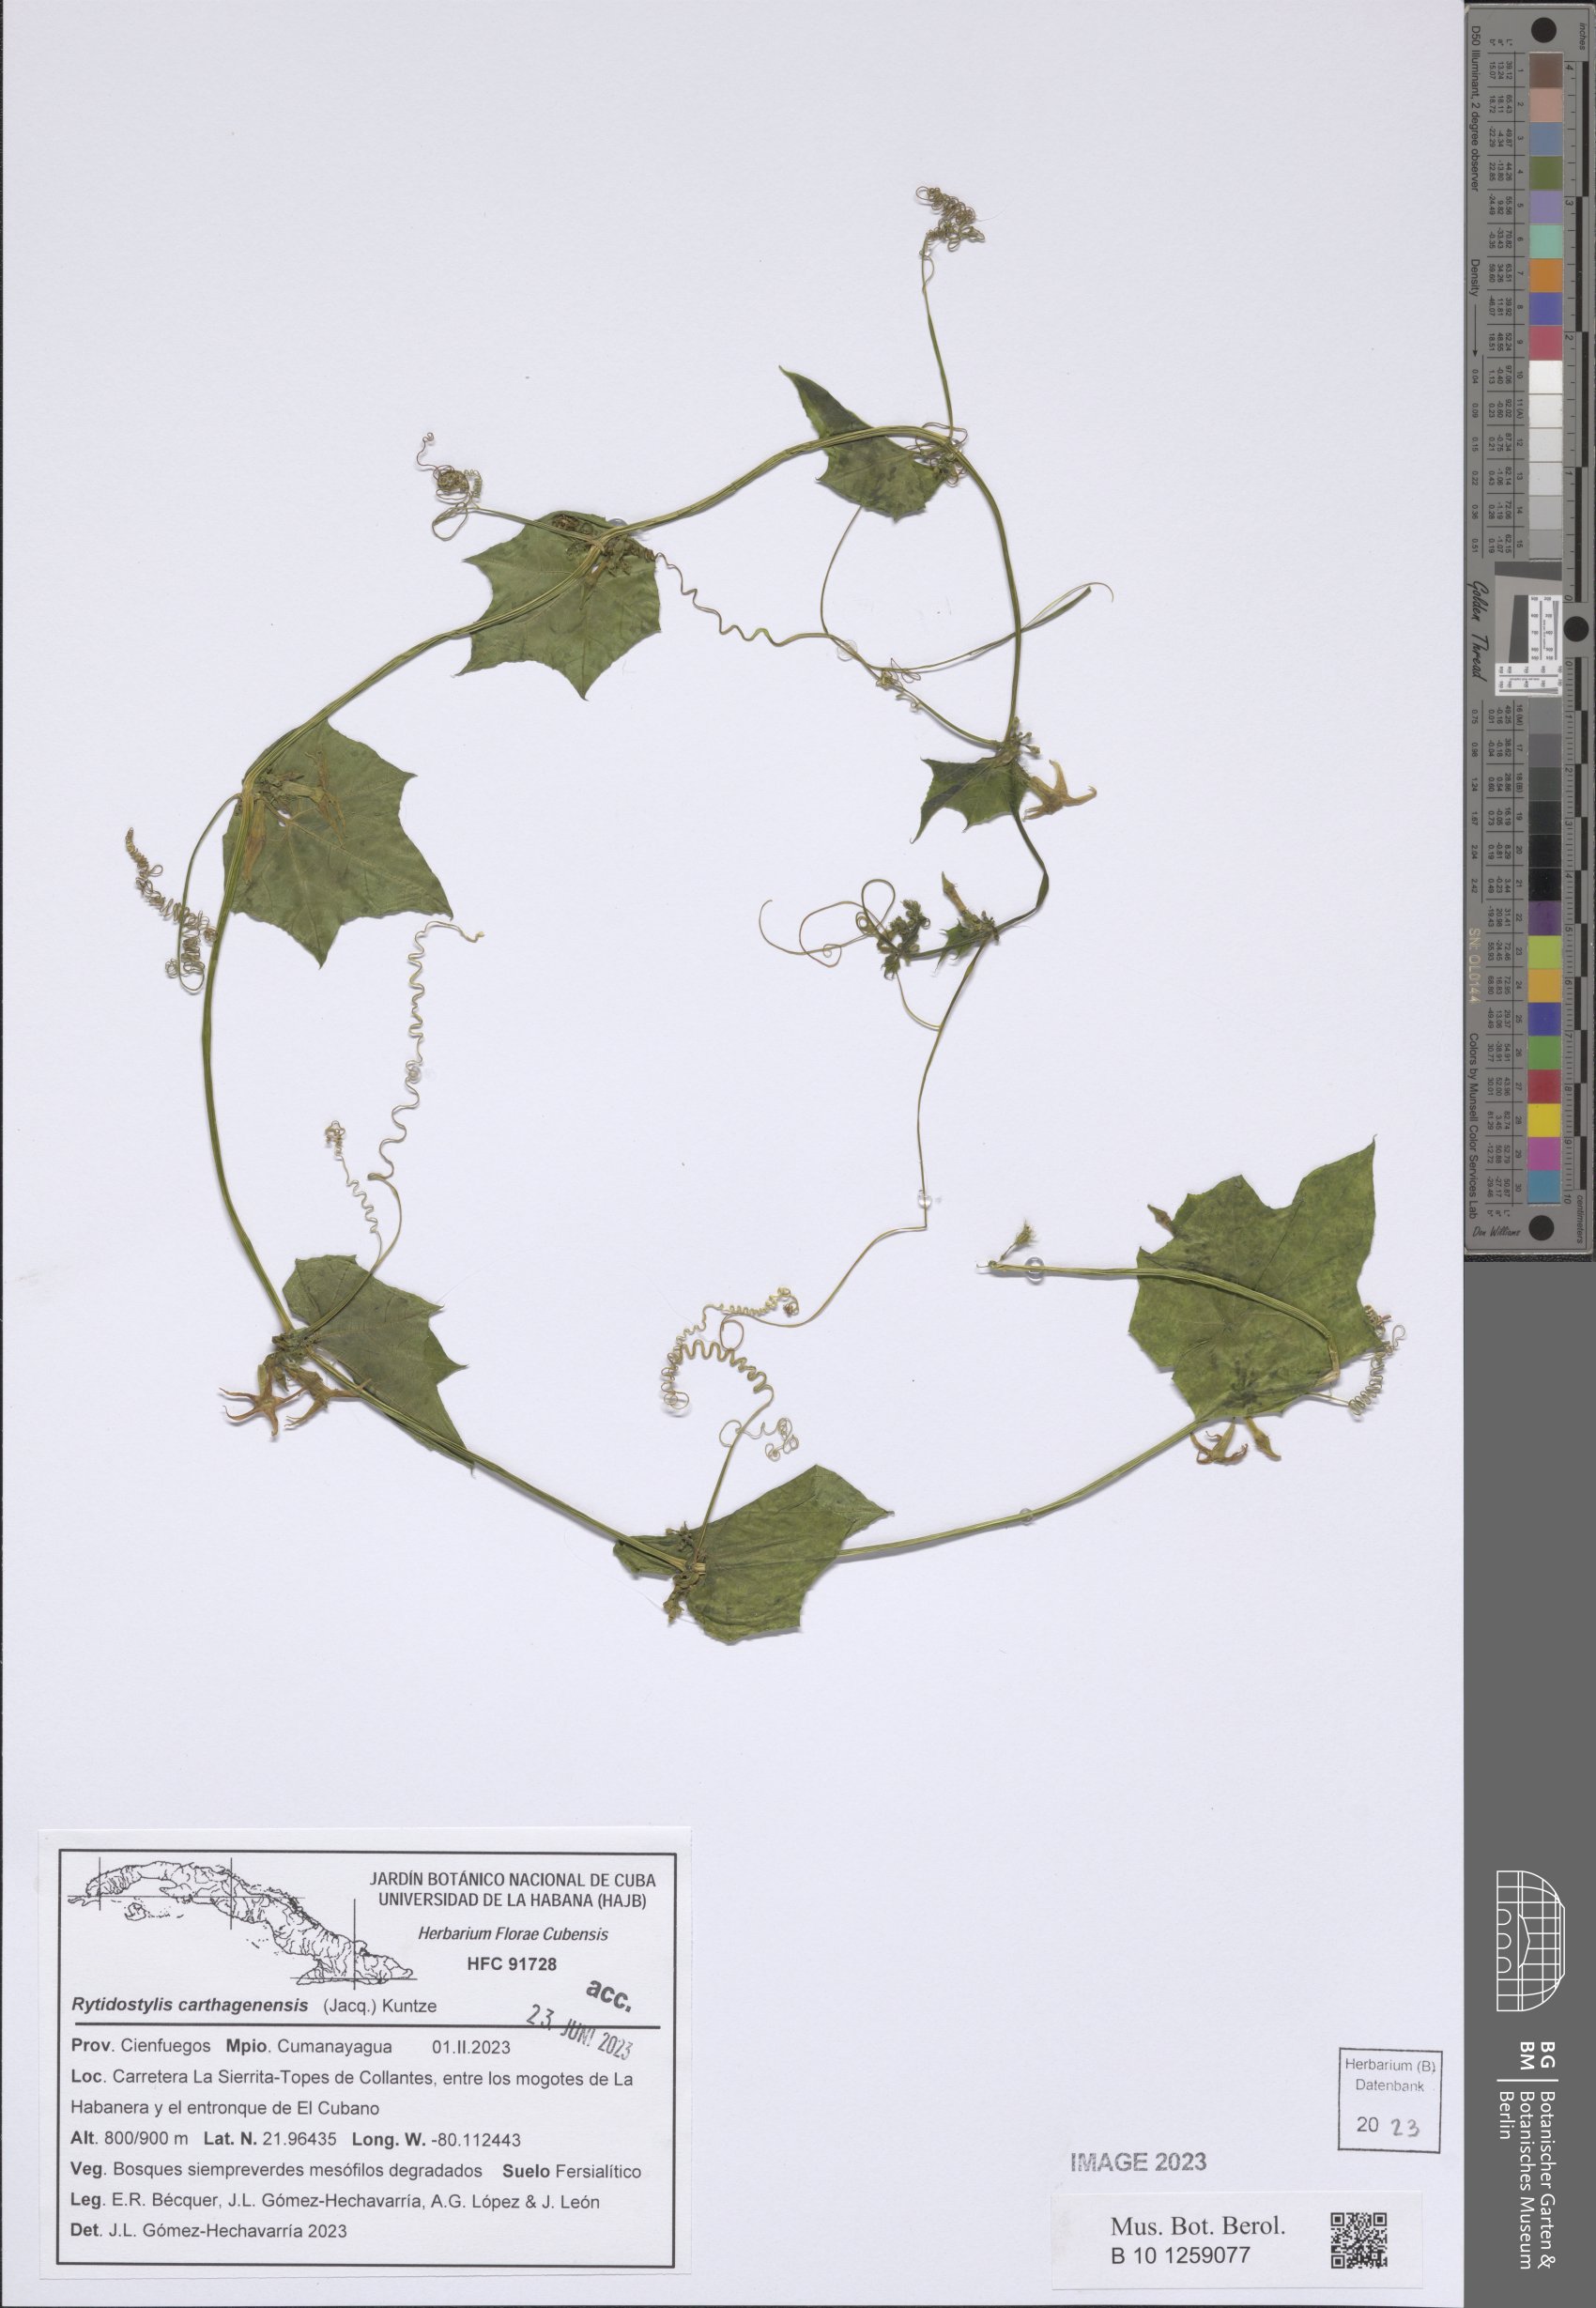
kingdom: Plantae
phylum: Tracheophyta
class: Magnoliopsida
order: Cucurbitales
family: Cucurbitaceae
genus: Cyclanthera
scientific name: Cyclanthera carthagenensis
